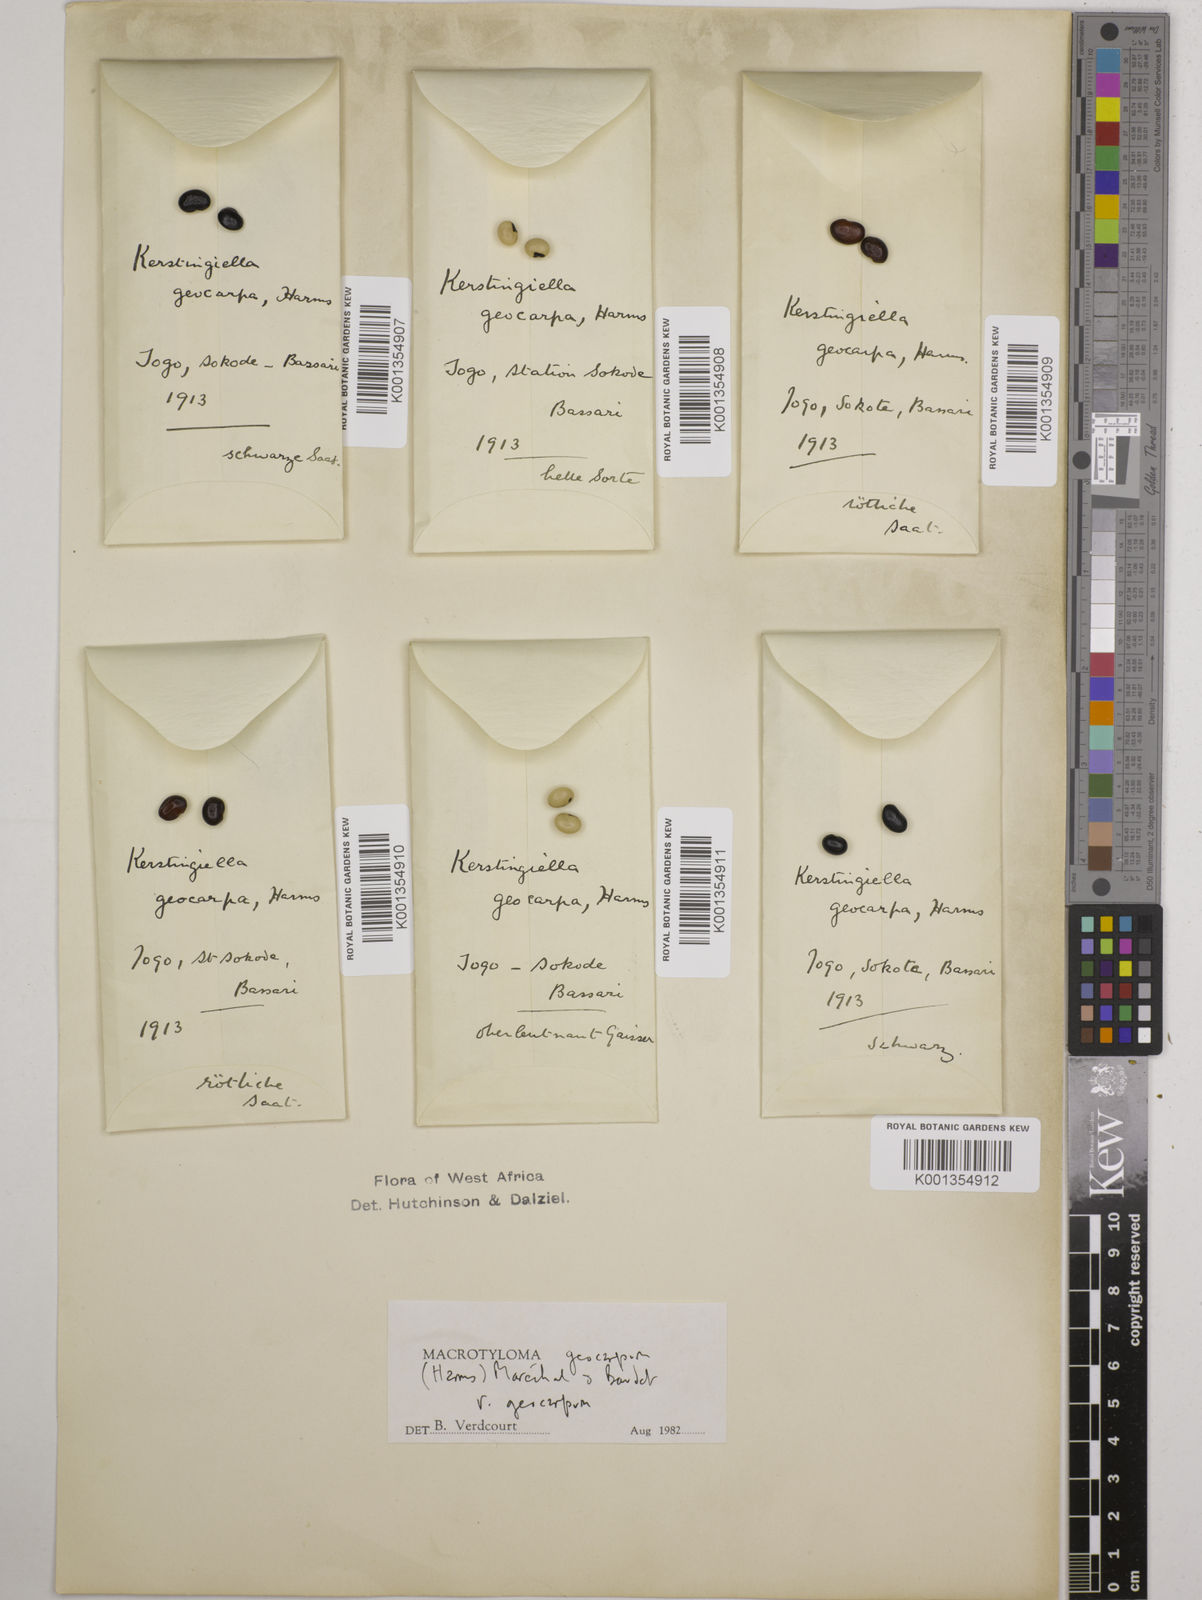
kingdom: Plantae
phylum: Tracheophyta
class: Magnoliopsida
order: Fabales
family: Fabaceae
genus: Macrotyloma
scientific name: Macrotyloma geocarpum
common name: Ground-bean
